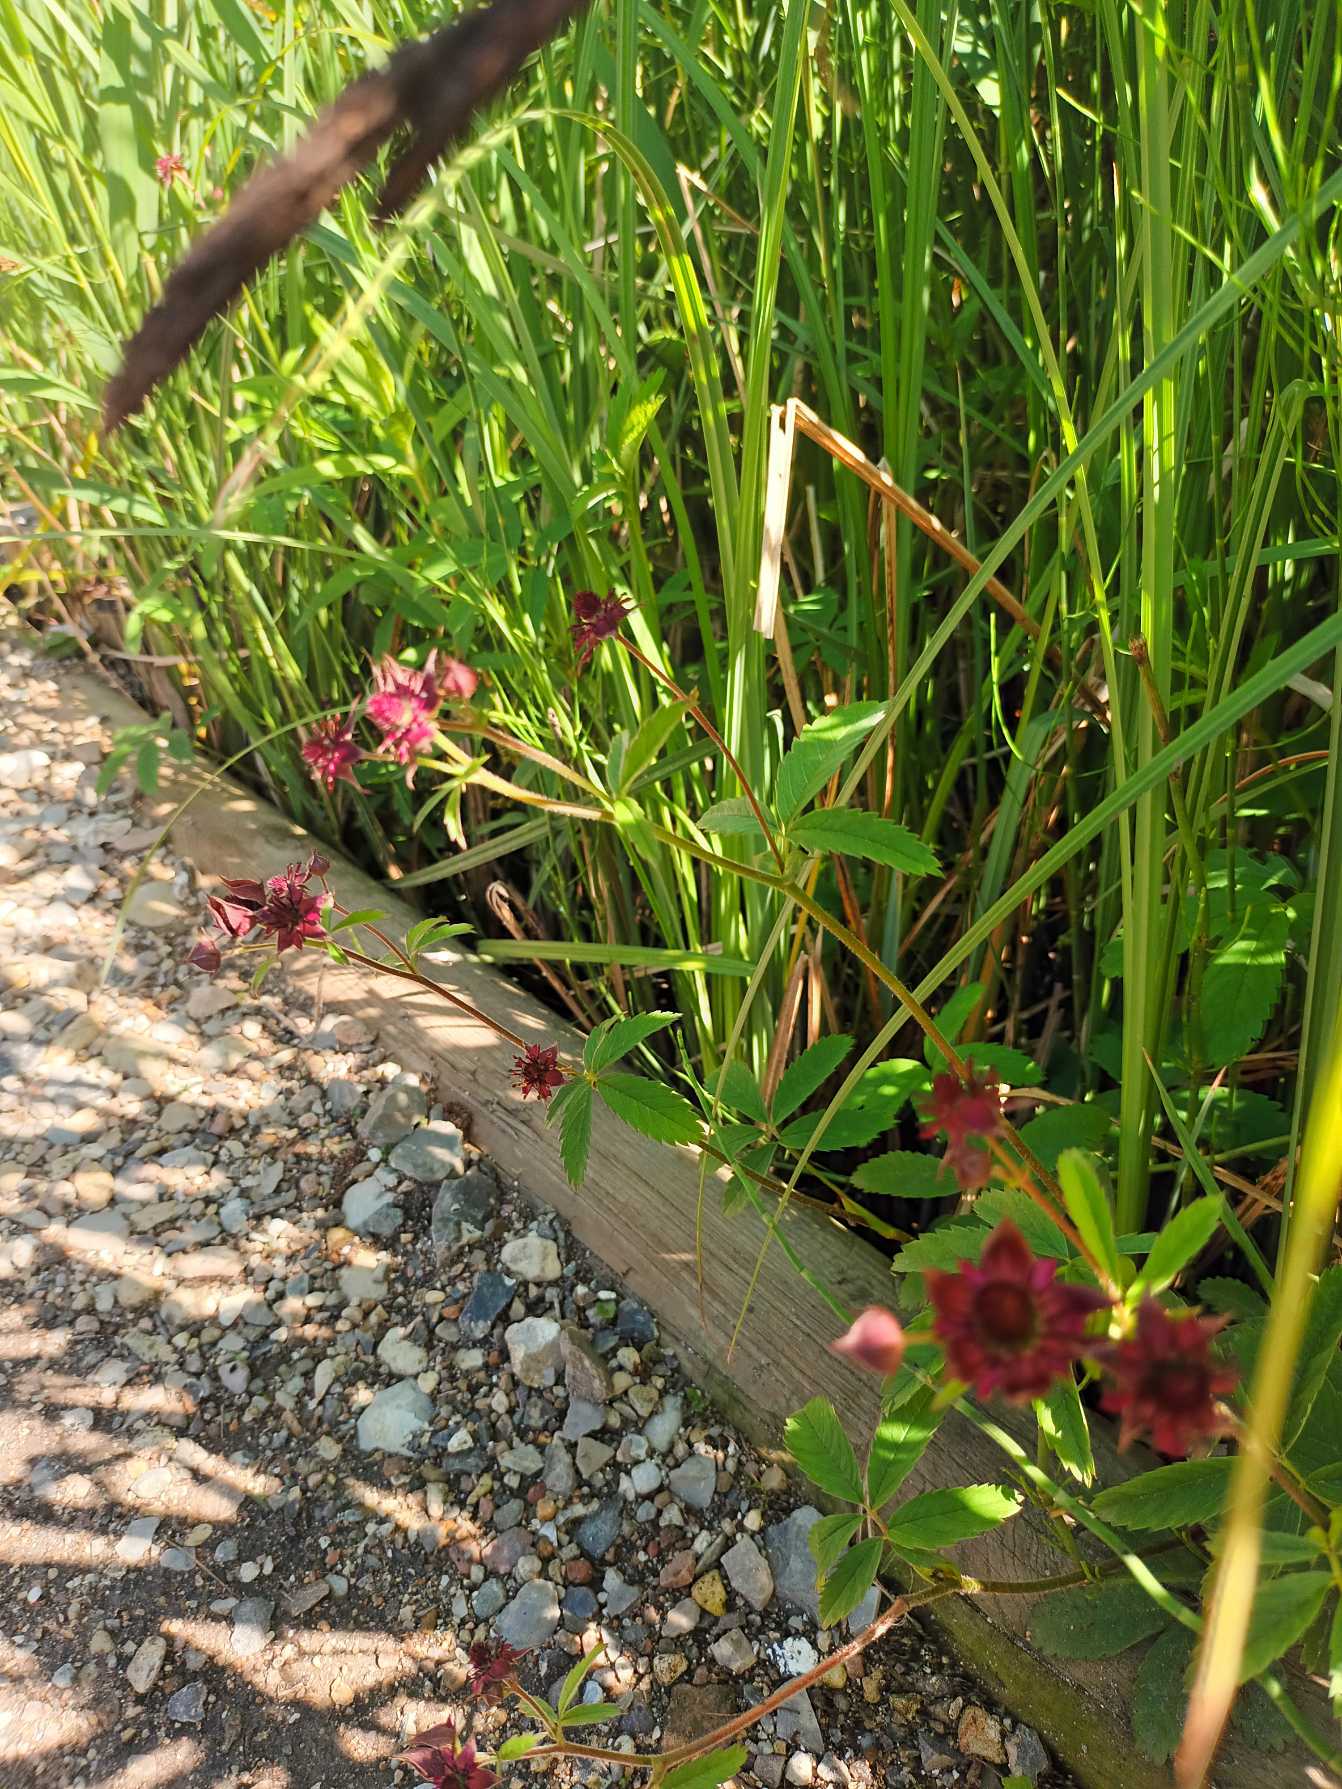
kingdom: Plantae
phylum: Tracheophyta
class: Magnoliopsida
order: Rosales
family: Rosaceae
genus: Comarum
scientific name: Comarum palustre
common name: Kragefod
